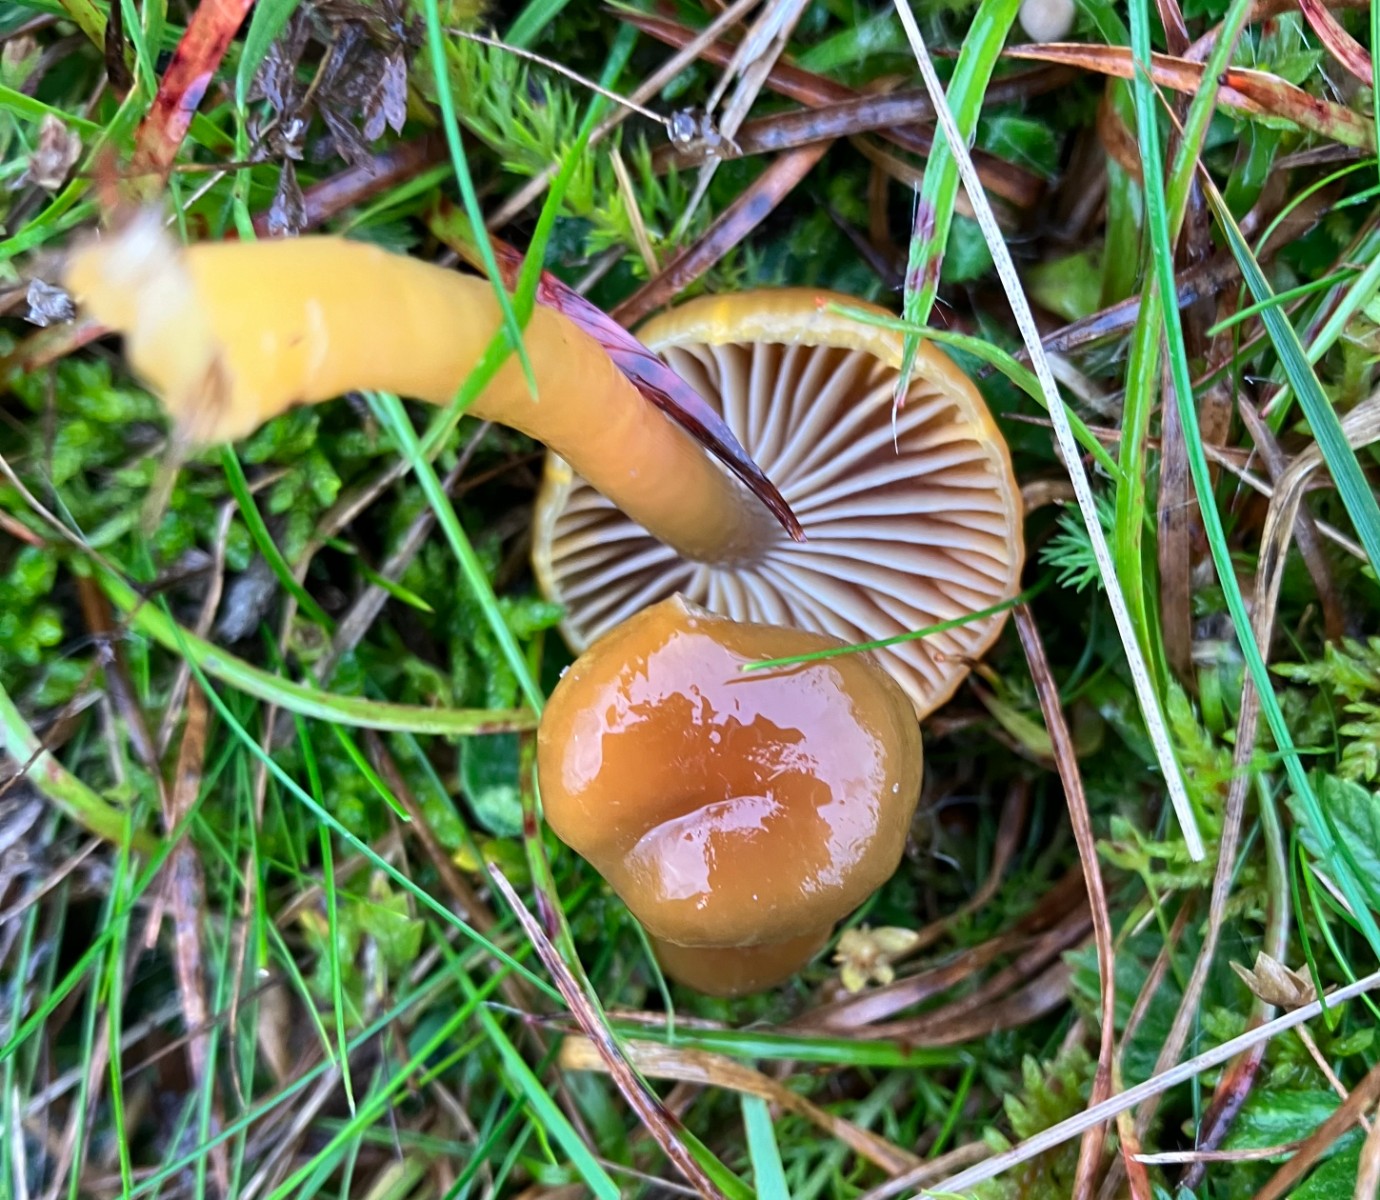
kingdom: Fungi
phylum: Basidiomycota
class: Agaricomycetes
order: Agaricales
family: Hygrophoraceae
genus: Gliophorus
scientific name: Gliophorus laetus
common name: brusk-vokshat
